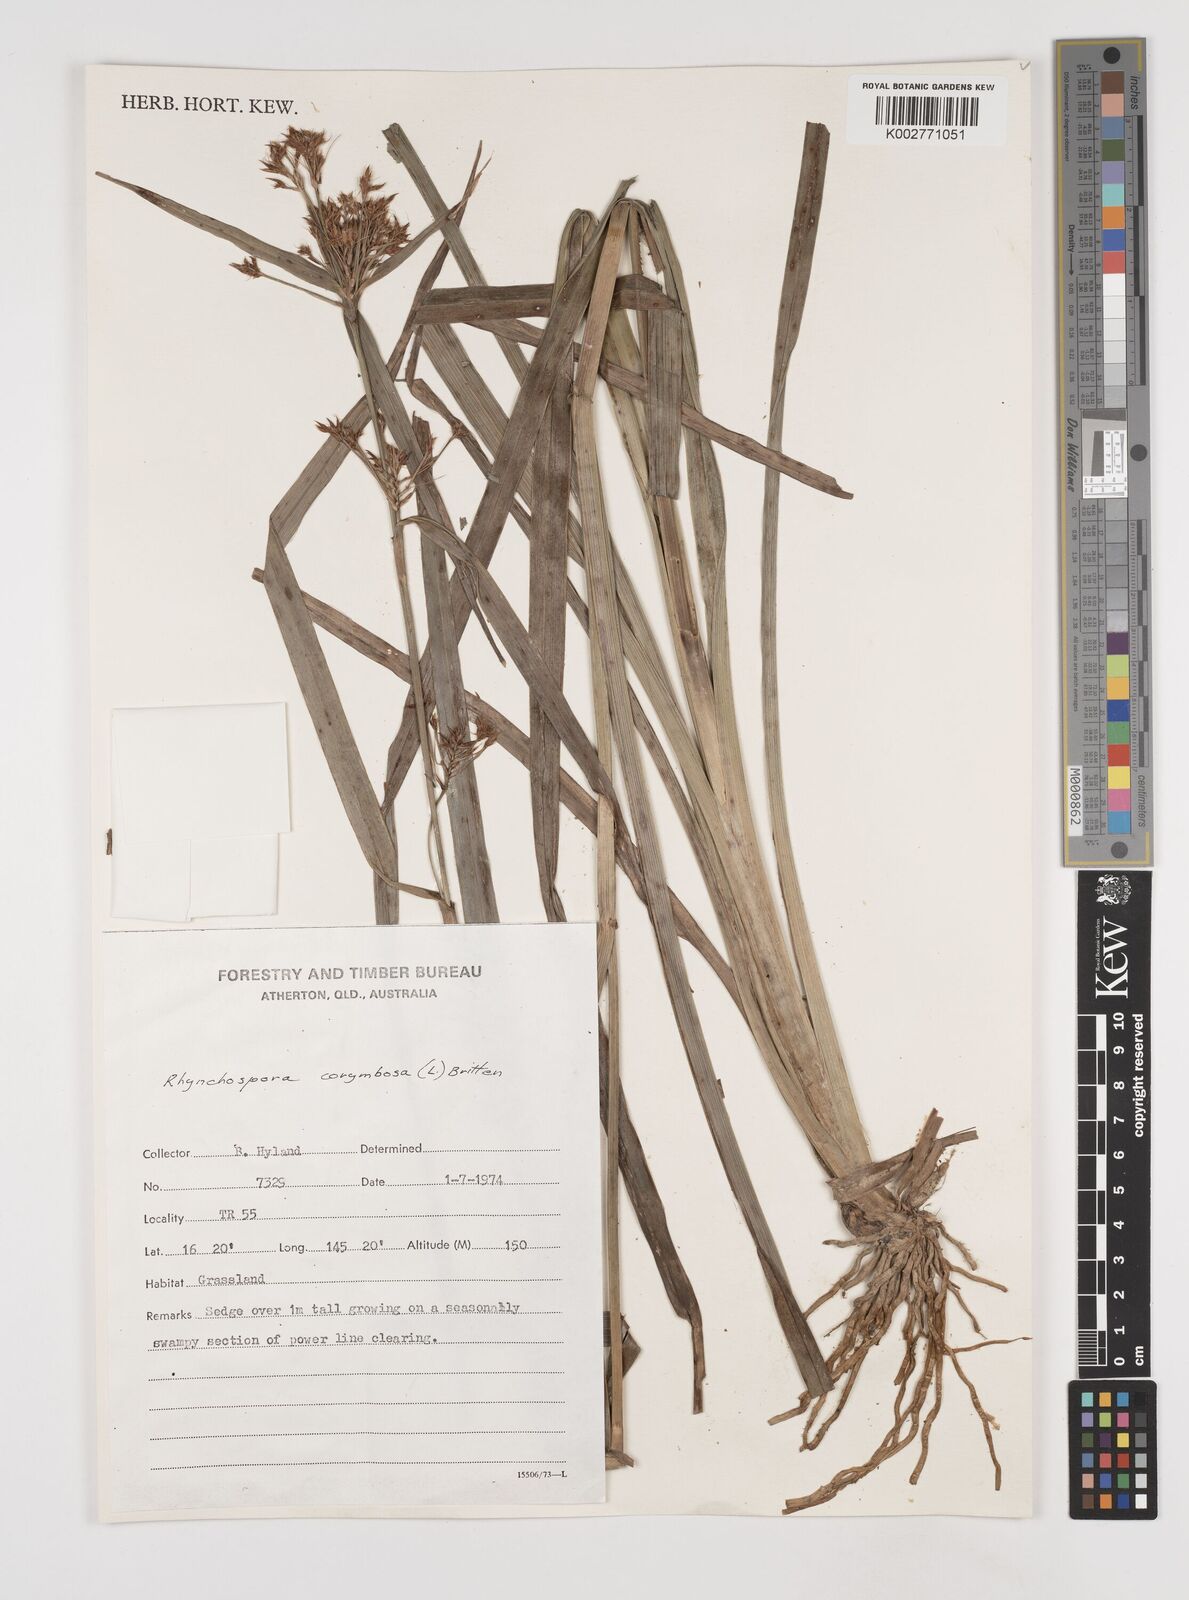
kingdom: Plantae
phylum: Tracheophyta
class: Liliopsida
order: Poales
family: Cyperaceae
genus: Rhynchospora
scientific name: Rhynchospora corymbosa
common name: Golden beak sedge
